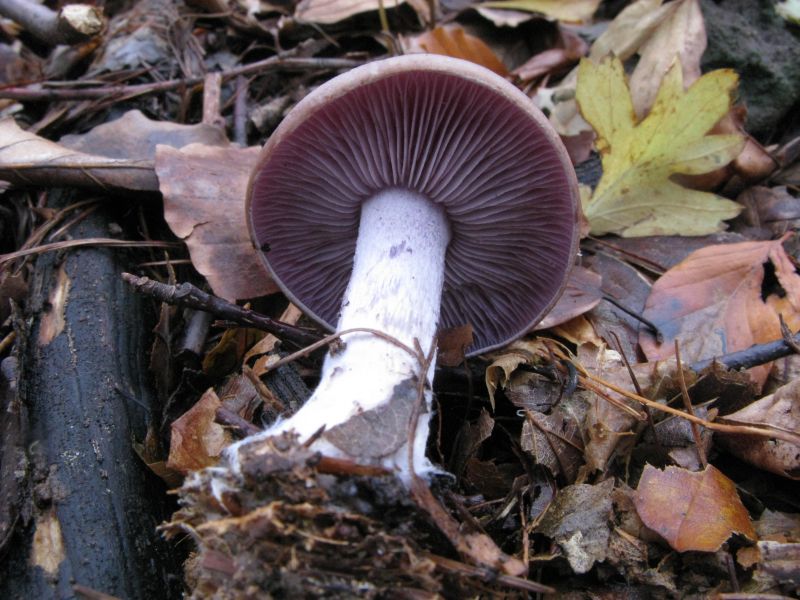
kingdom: Fungi
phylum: Basidiomycota
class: Agaricomycetes
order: Agaricales
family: Tricholomataceae
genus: Lepista
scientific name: Lepista nuda
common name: violet hekseringshat
